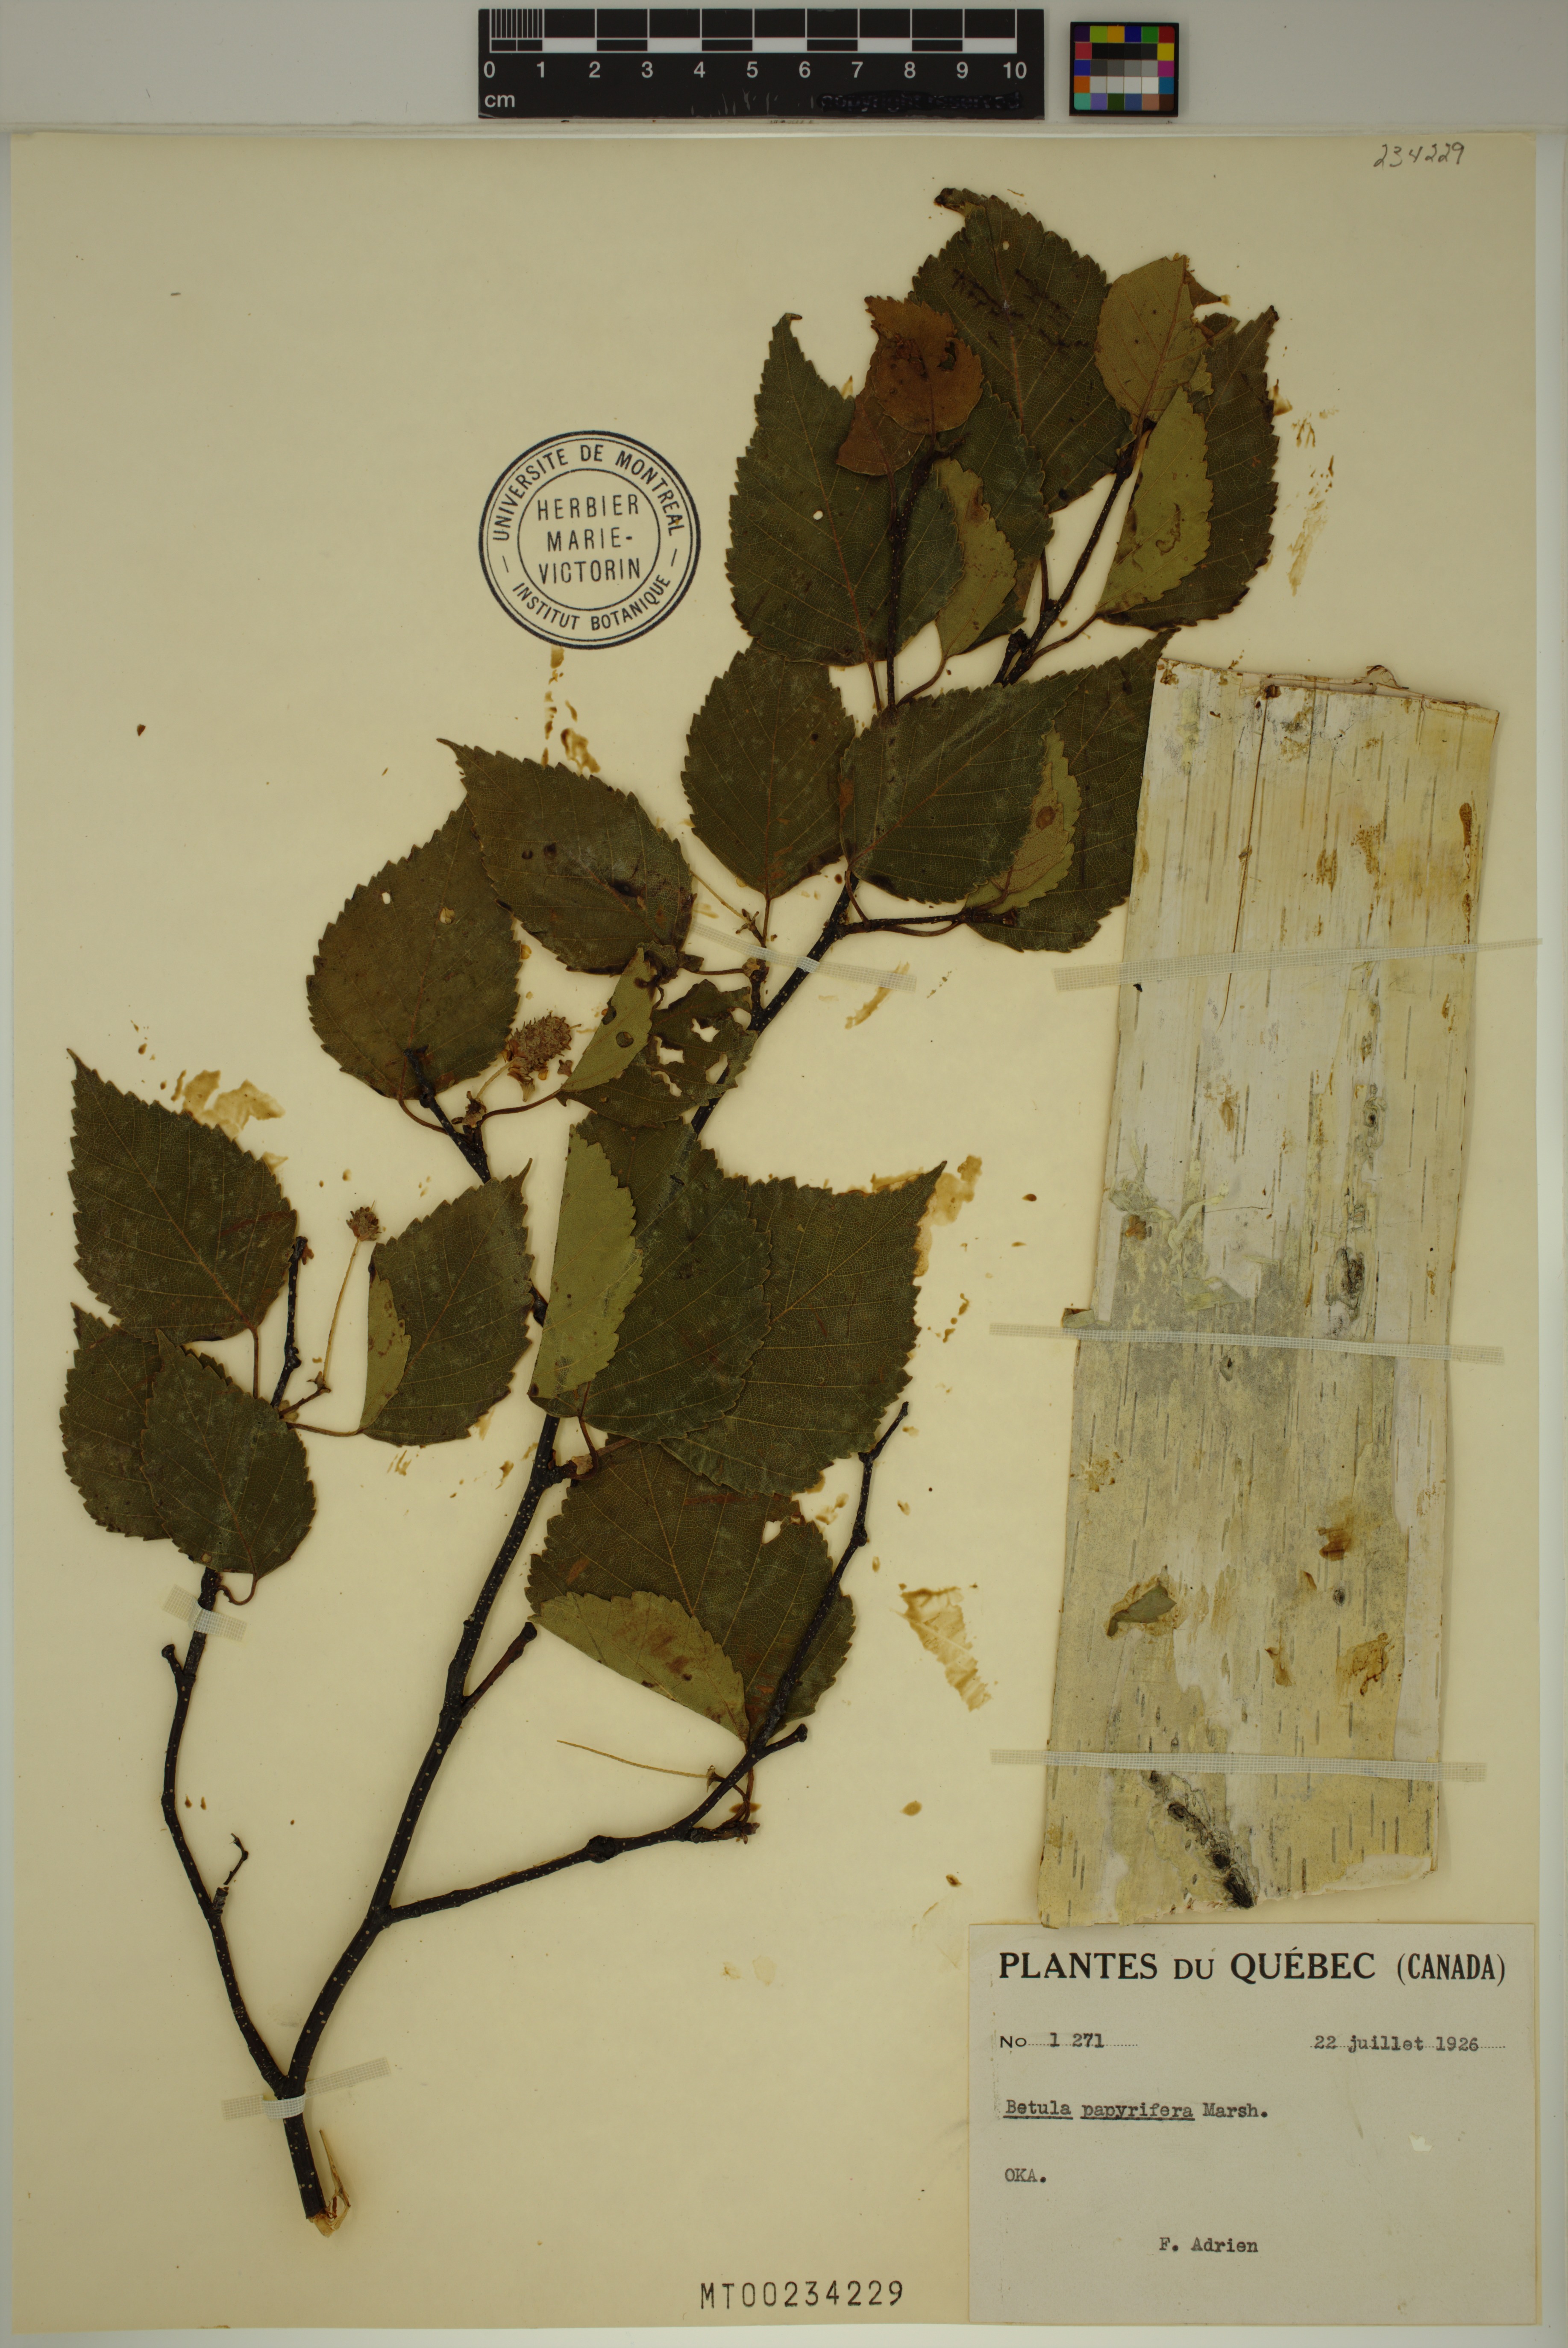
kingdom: Plantae
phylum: Tracheophyta
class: Magnoliopsida
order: Fagales
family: Betulaceae
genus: Betula
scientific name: Betula papyrifera
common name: Paper birch
